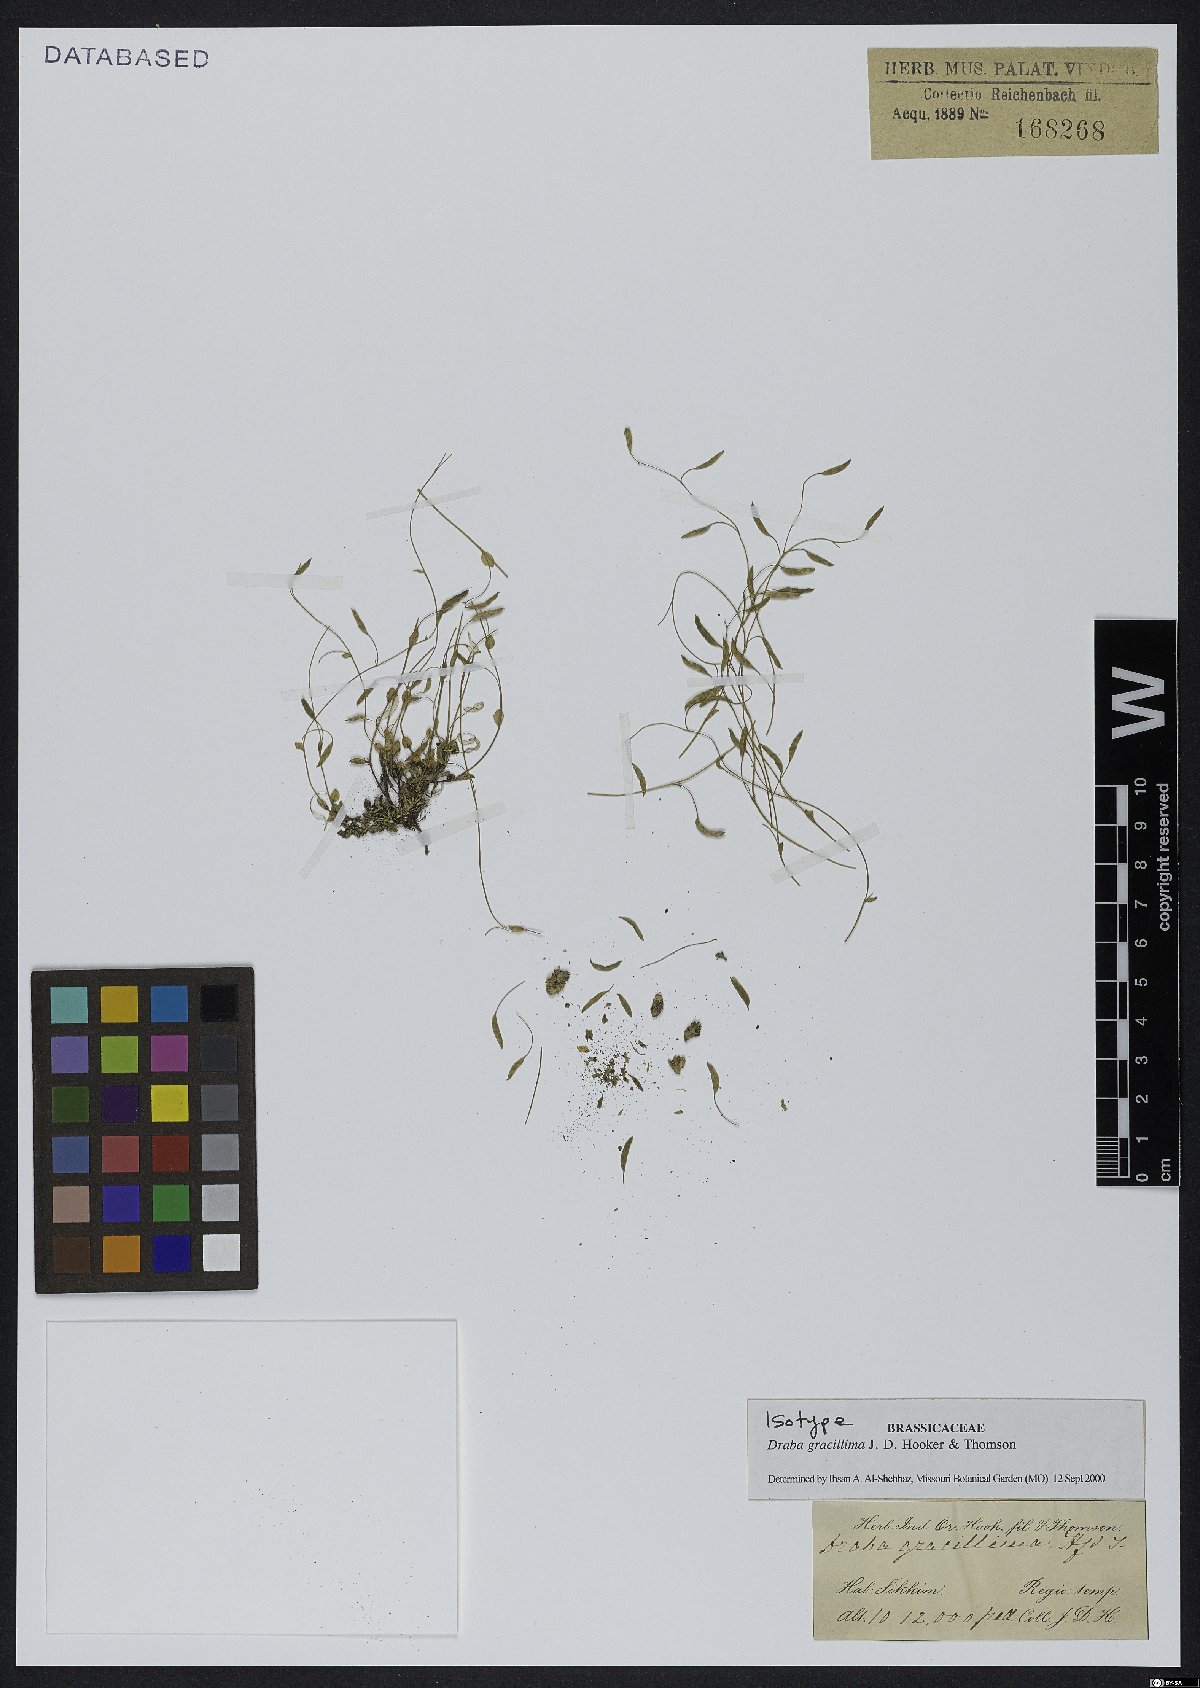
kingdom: Plantae
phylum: Tracheophyta
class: Magnoliopsida
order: Brassicales
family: Brassicaceae
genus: Draba
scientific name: Draba gracillima
